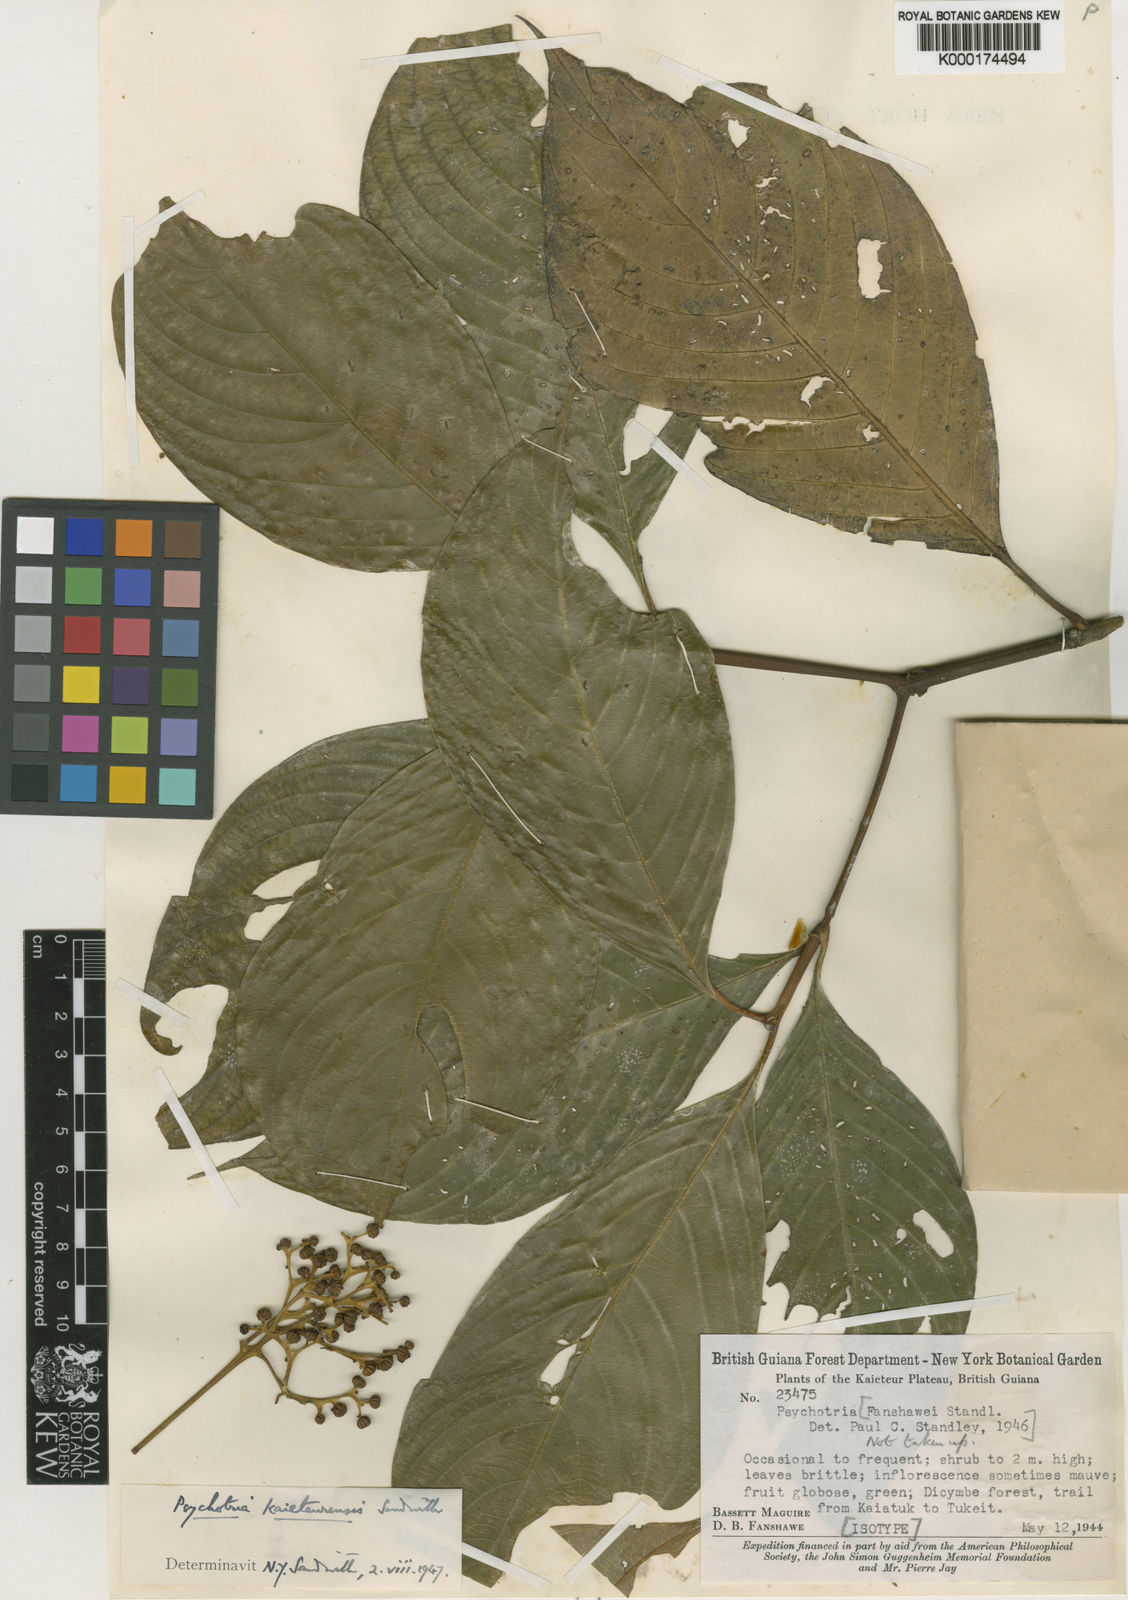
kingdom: Plantae
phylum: Tracheophyta
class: Magnoliopsida
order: Gentianales
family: Rubiaceae
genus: Palicourea
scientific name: Palicourea sandwithii
